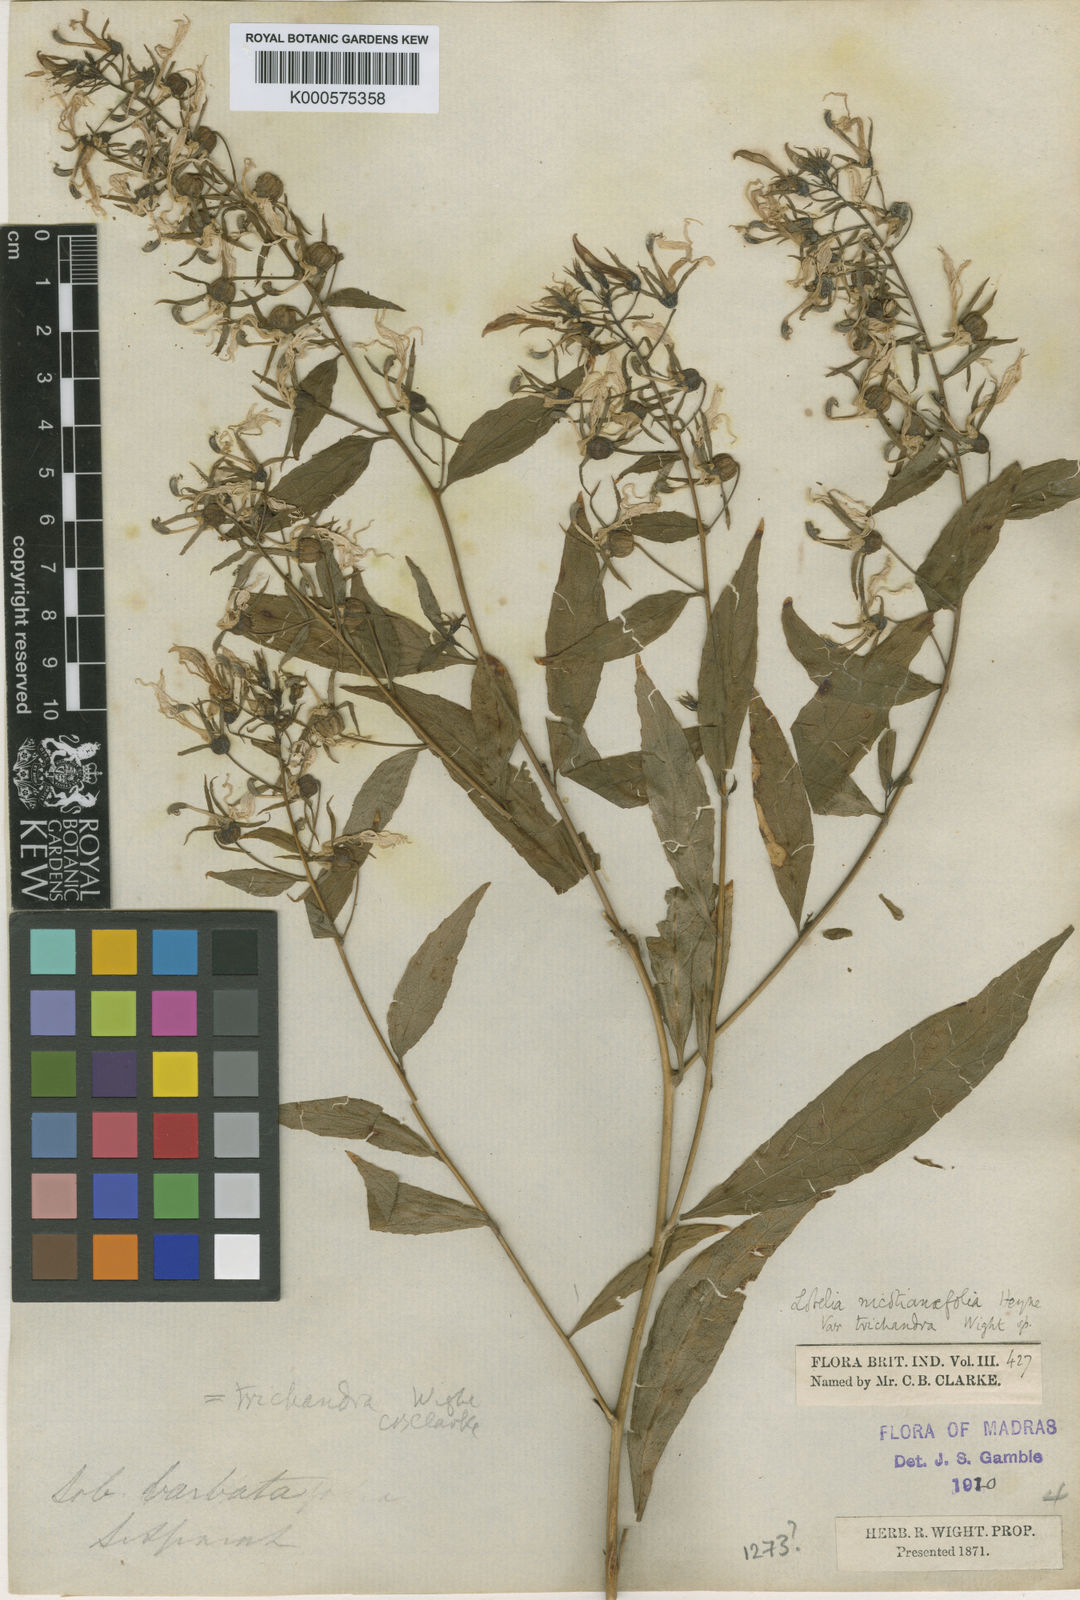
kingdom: Plantae
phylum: Tracheophyta
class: Magnoliopsida
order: Asterales
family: Campanulaceae
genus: Lobelia
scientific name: Lobelia
